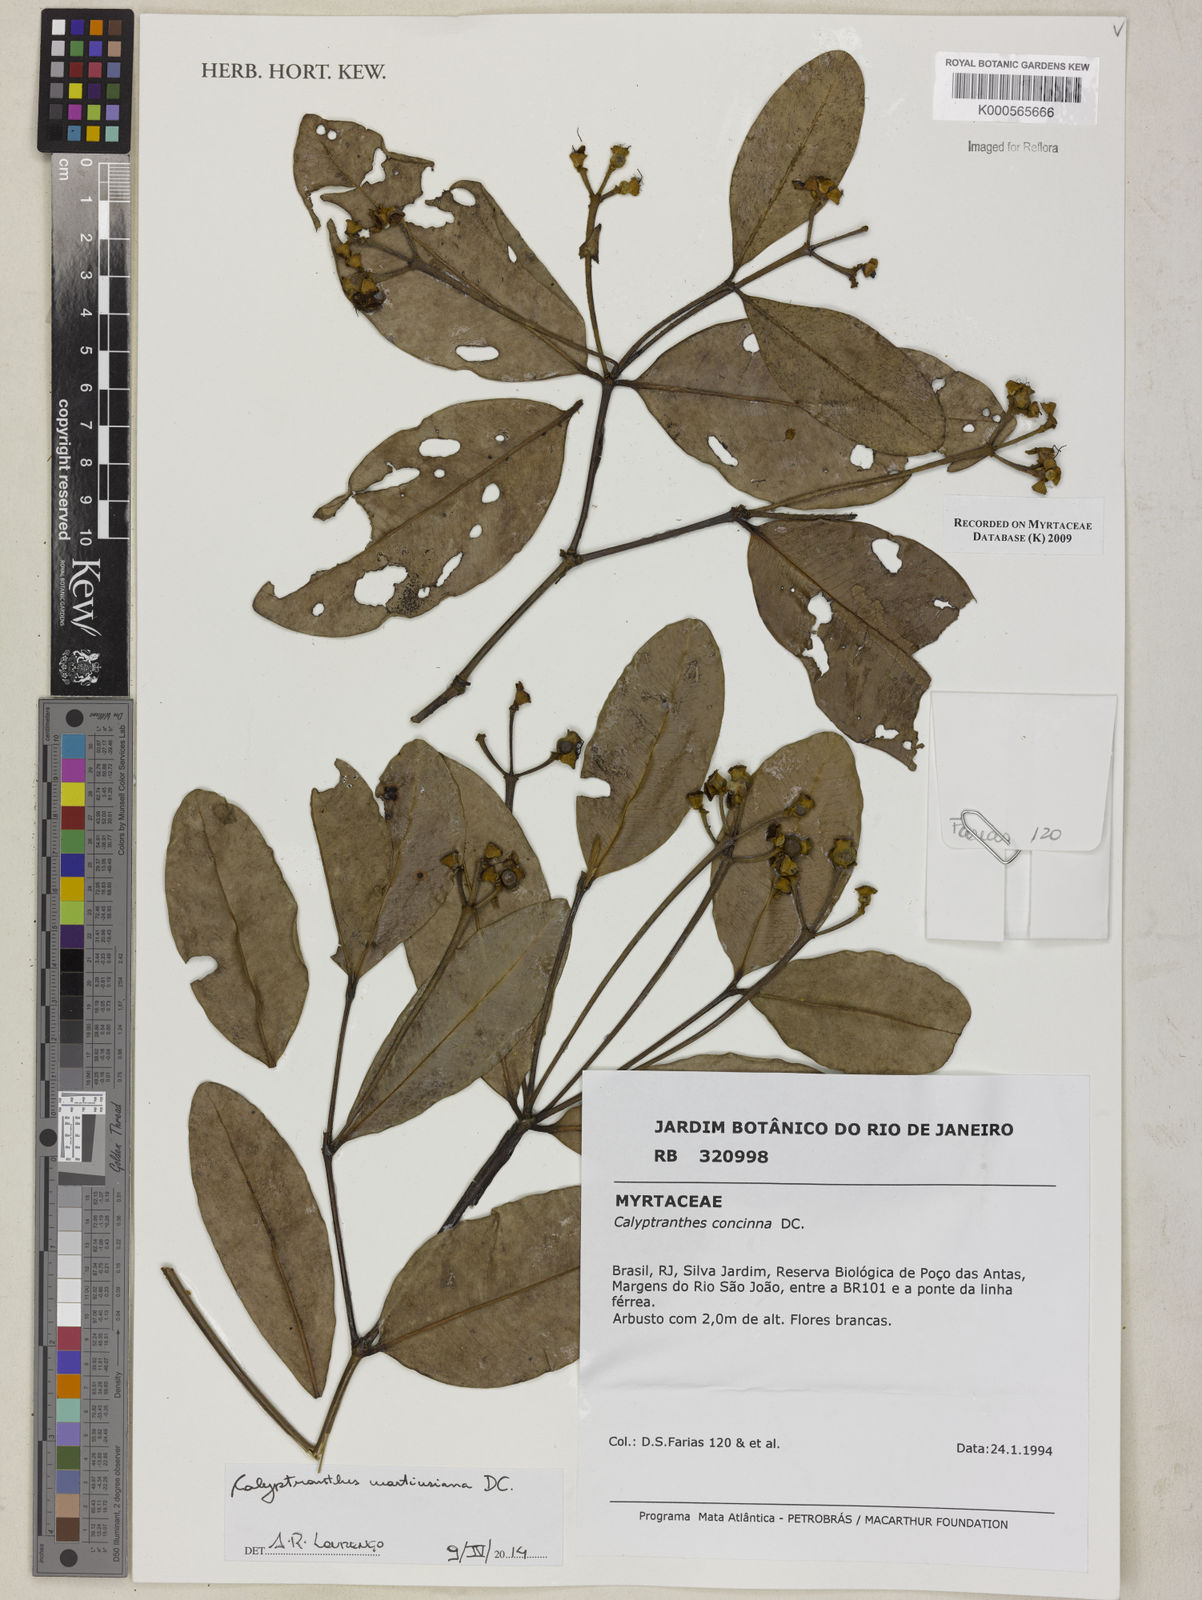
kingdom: Plantae
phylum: Tracheophyta
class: Magnoliopsida
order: Myrtales
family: Myrtaceae
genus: Myrcia
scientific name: Myrcia martiusiana
